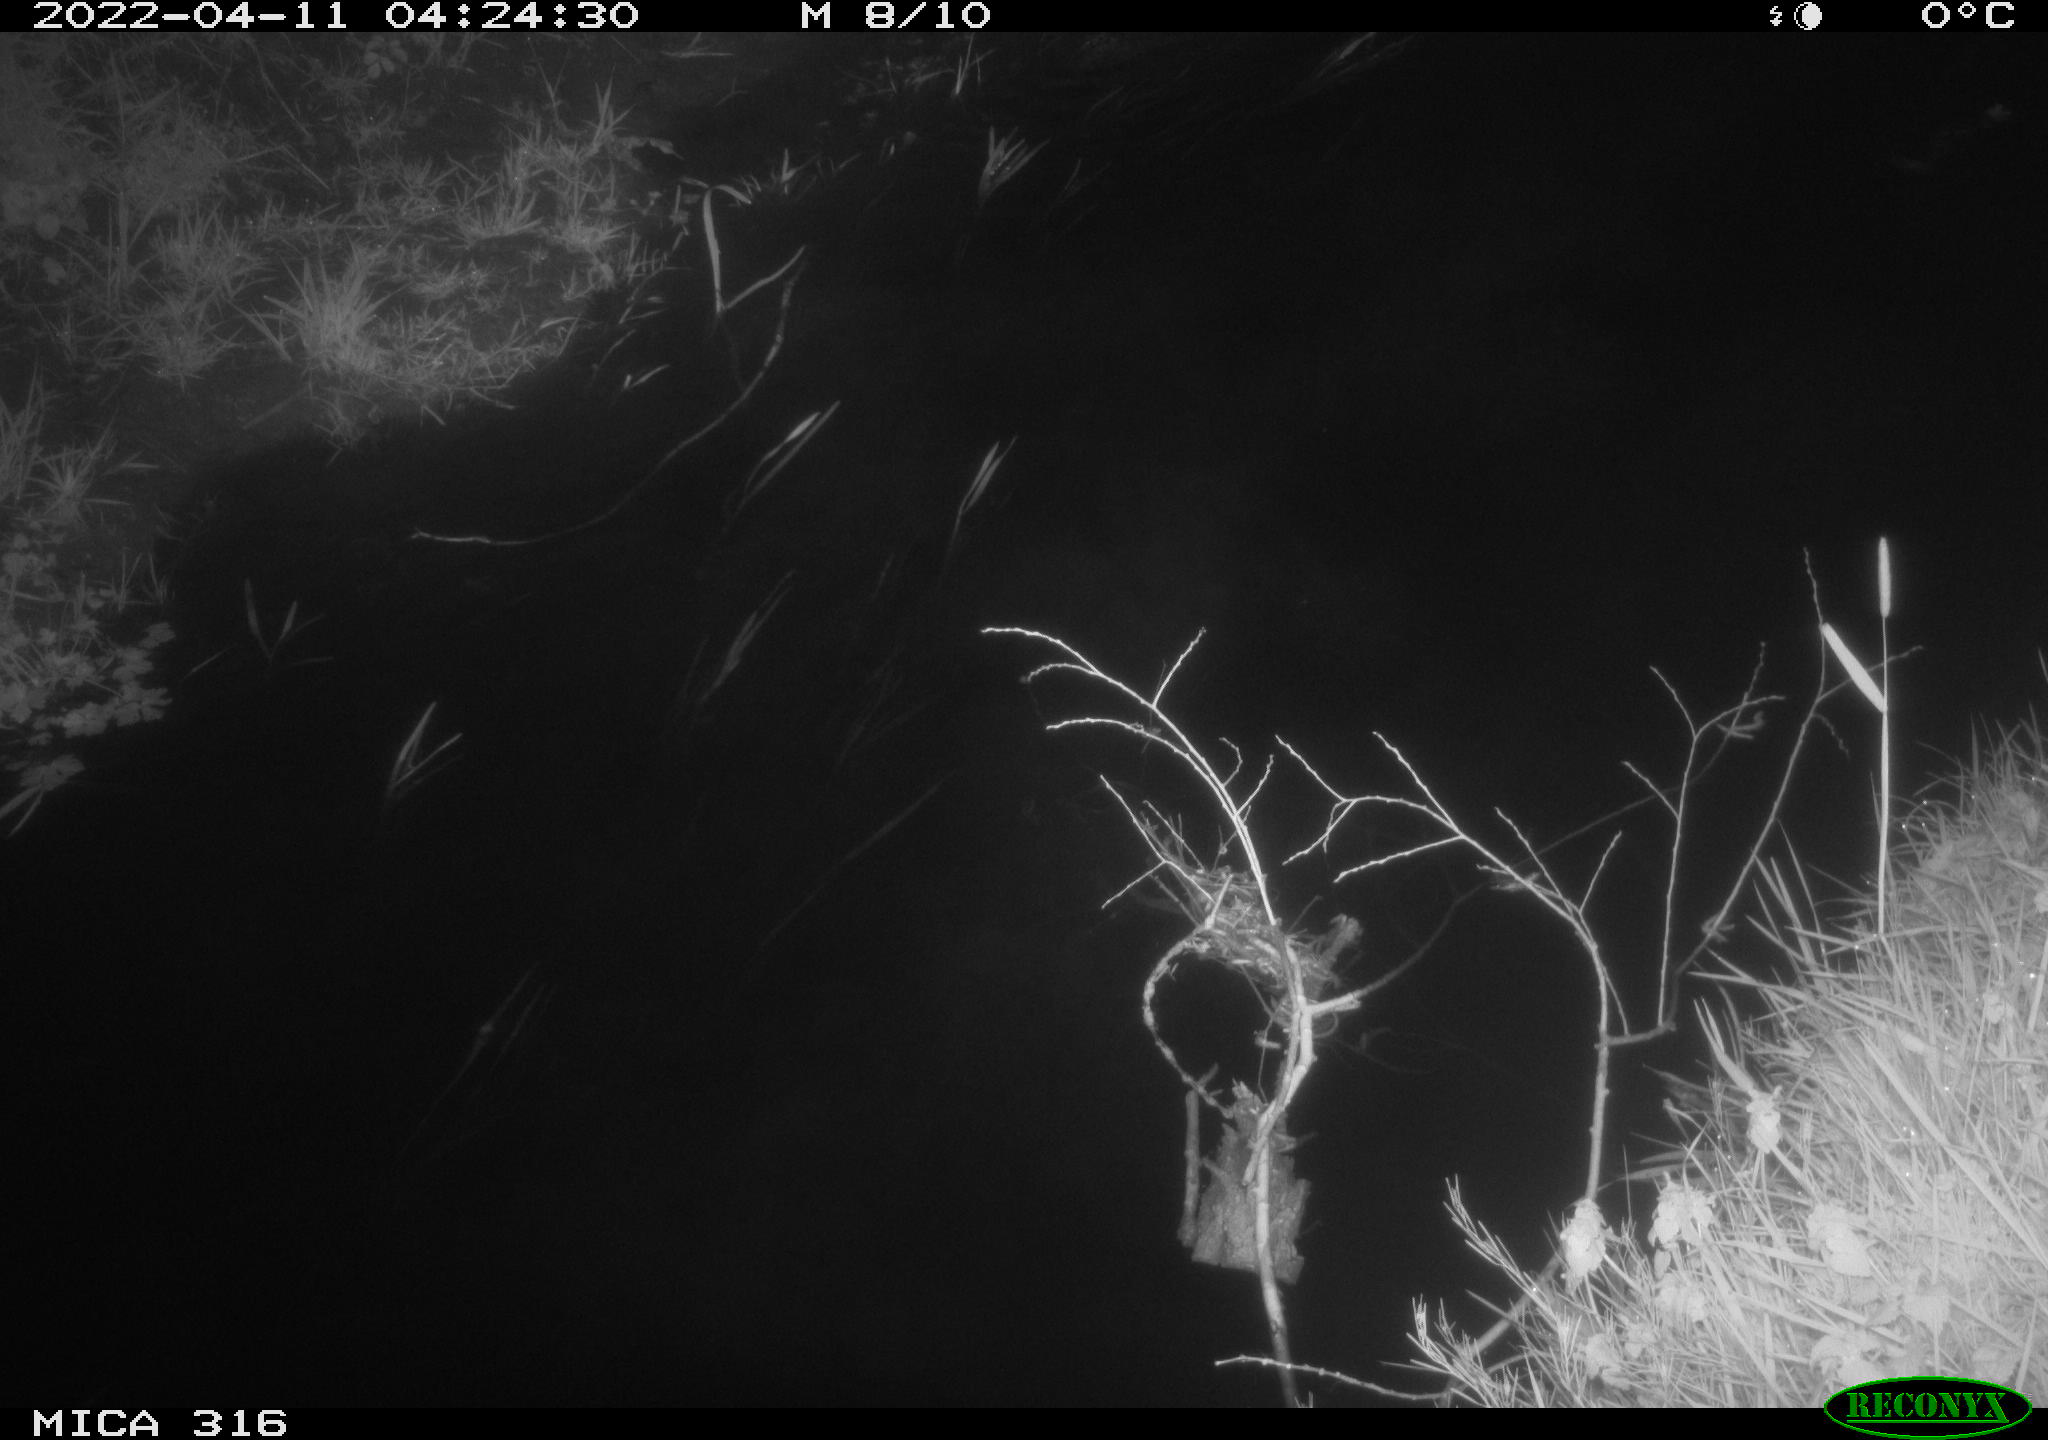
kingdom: Animalia
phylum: Chordata
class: Aves
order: Anseriformes
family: Anatidae
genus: Anas
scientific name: Anas platyrhynchos
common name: Mallard
